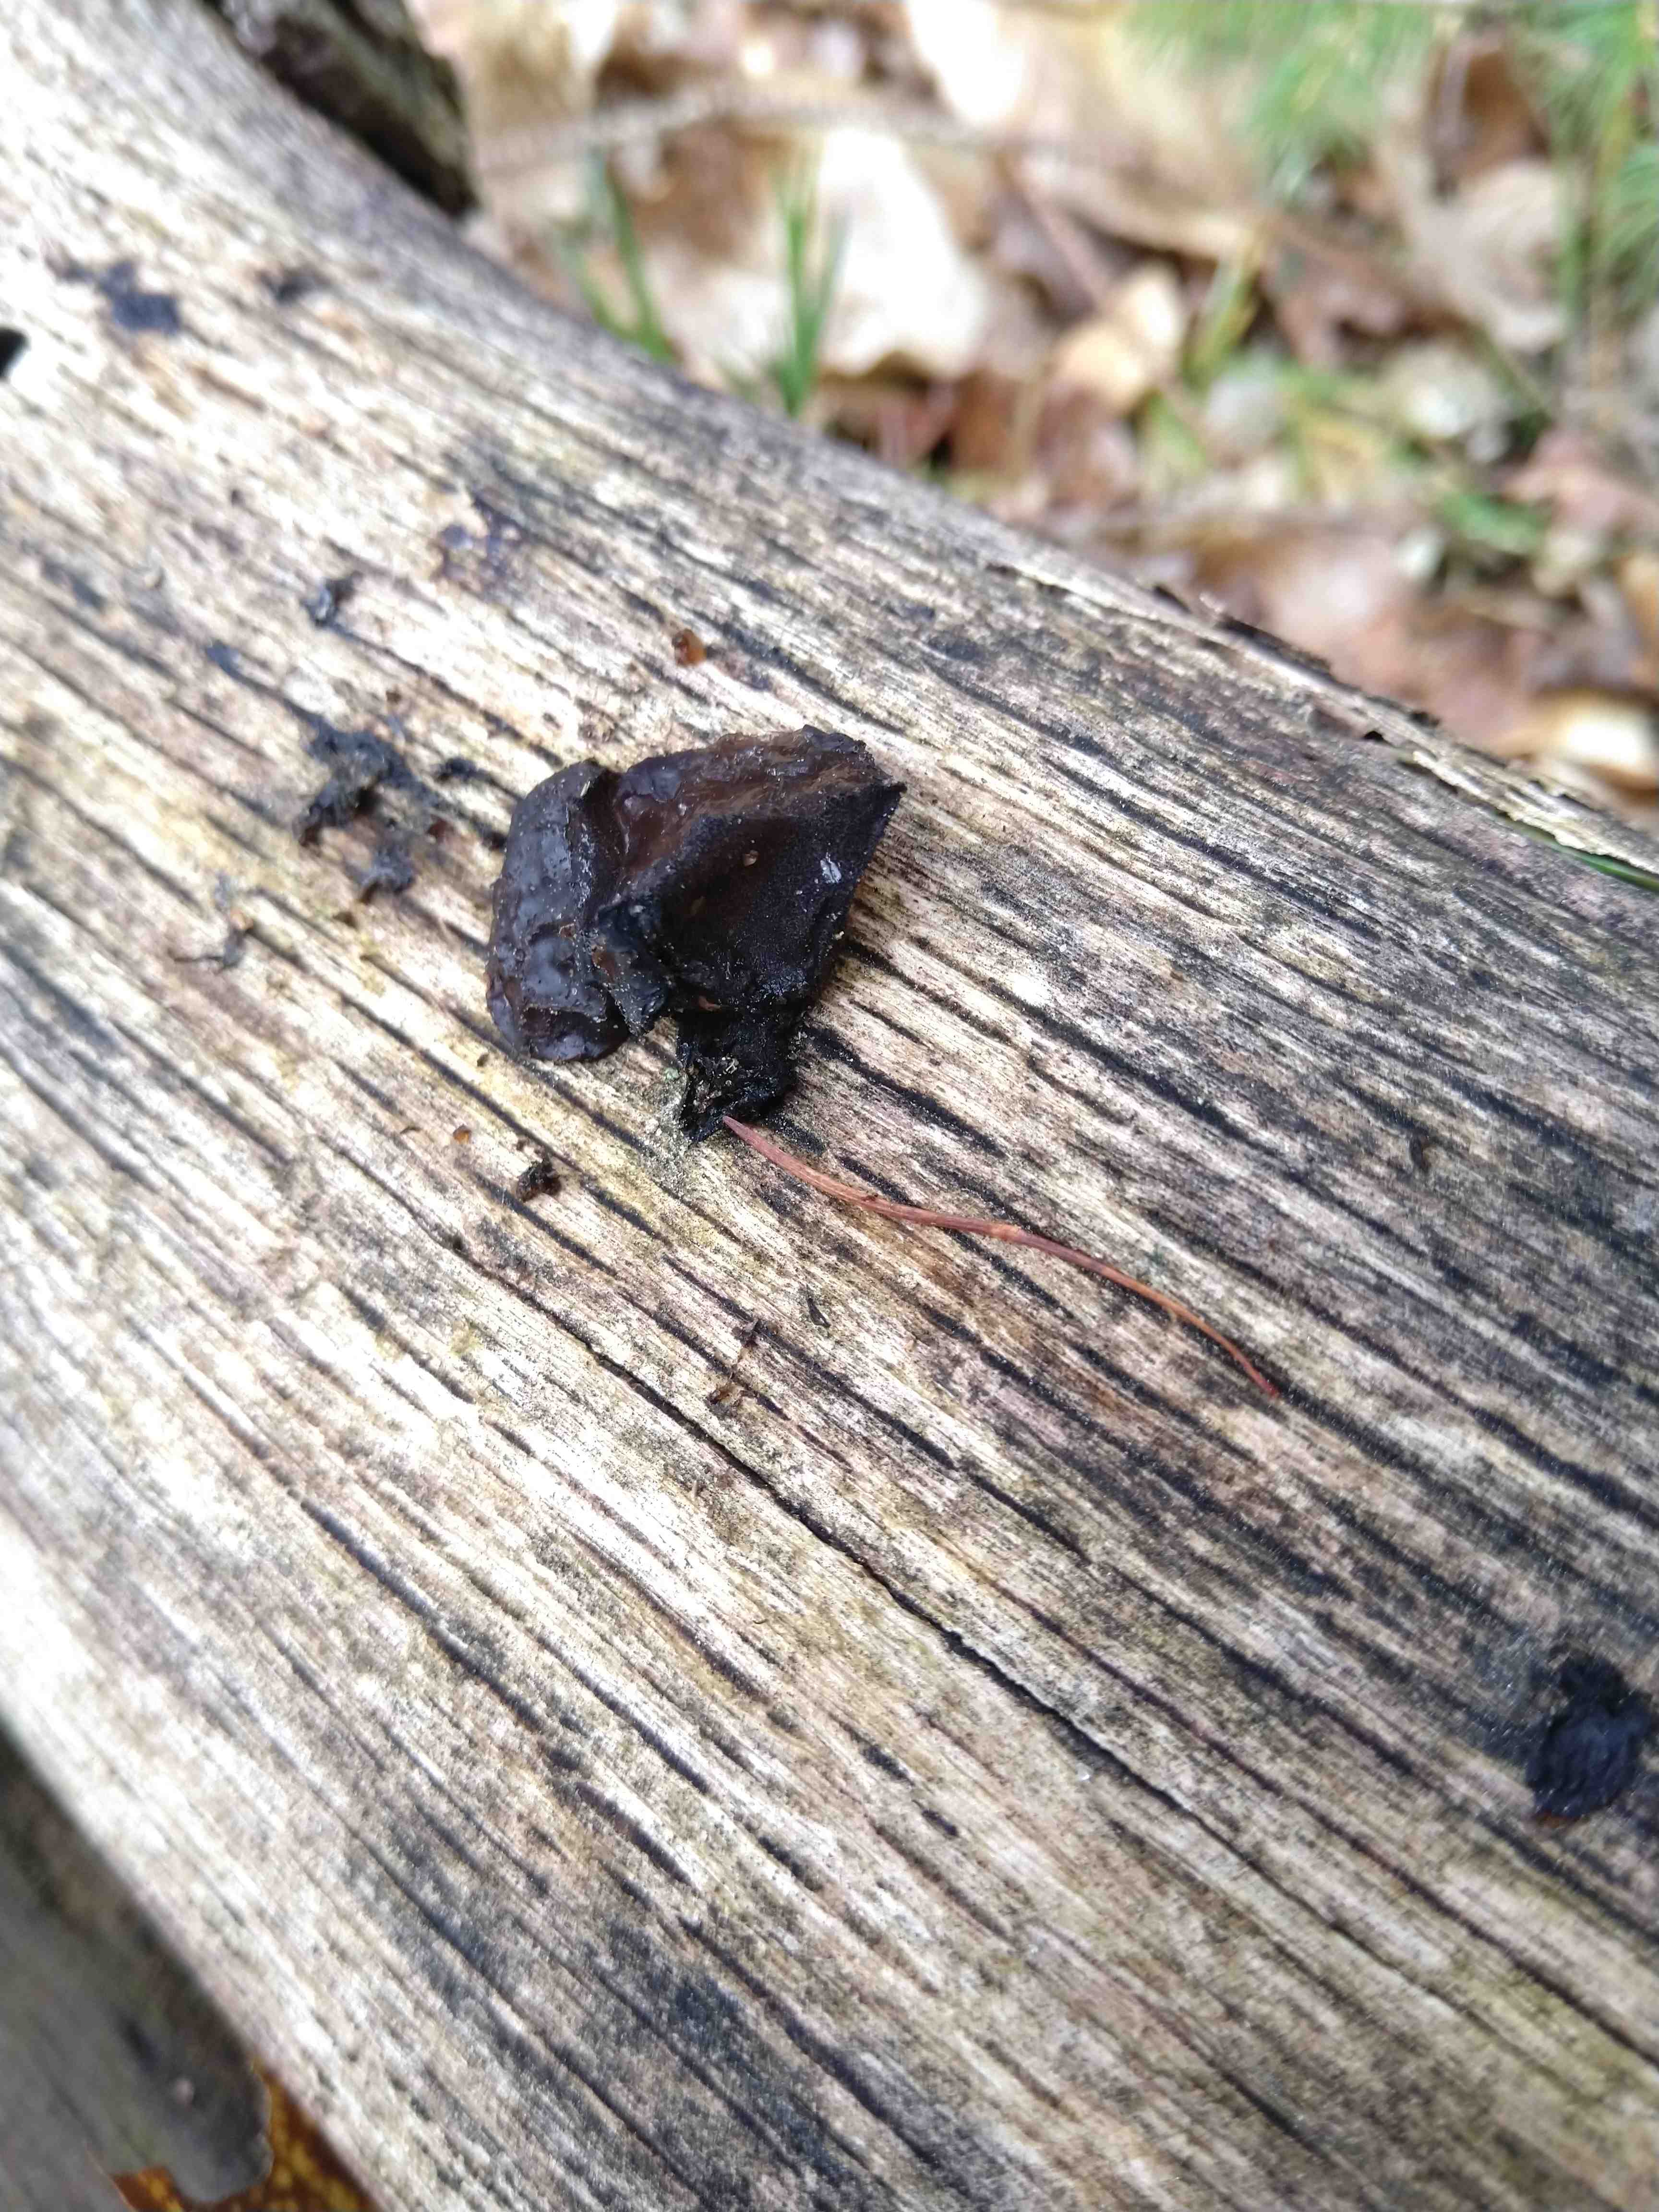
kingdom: Fungi
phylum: Basidiomycota
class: Agaricomycetes
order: Auriculariales
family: Auriculariaceae
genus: Exidia
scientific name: Exidia glandulosa
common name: ege-bævretop
